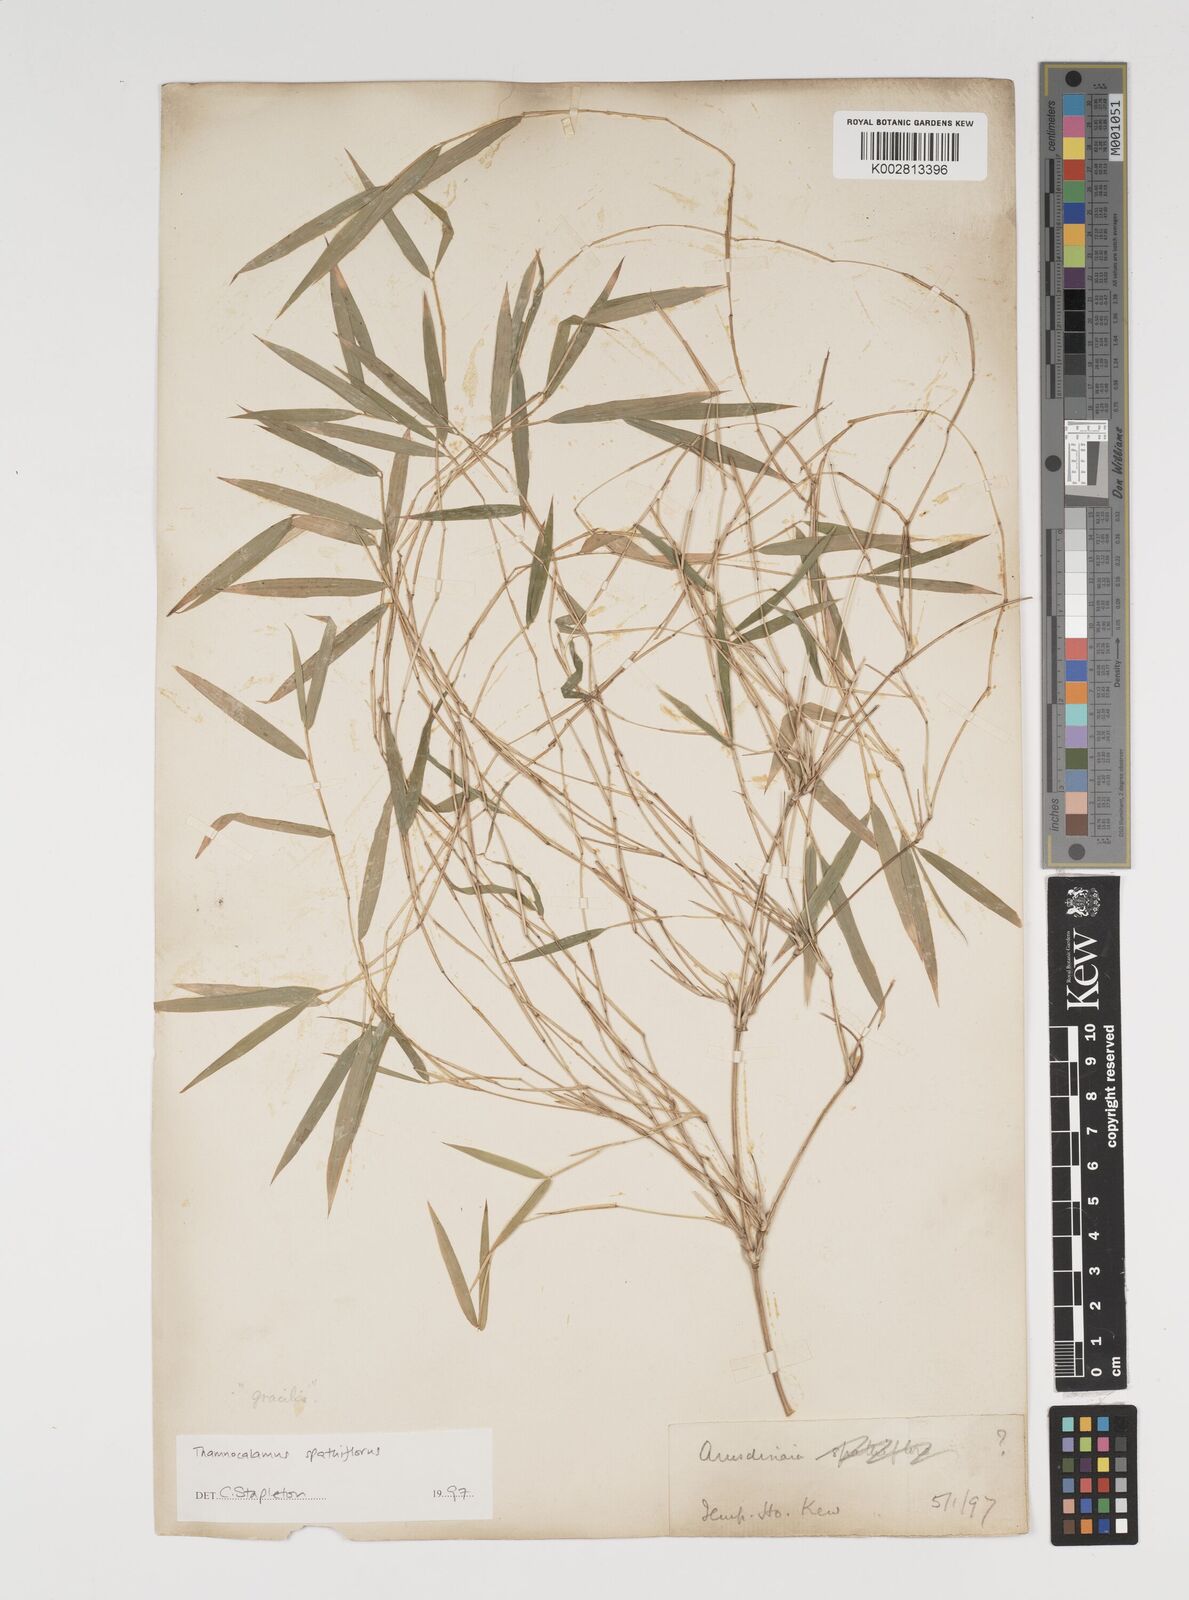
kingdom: Plantae
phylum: Tracheophyta
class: Liliopsida
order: Poales
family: Poaceae
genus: Thamnocalamus
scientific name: Thamnocalamus spathiflorus
